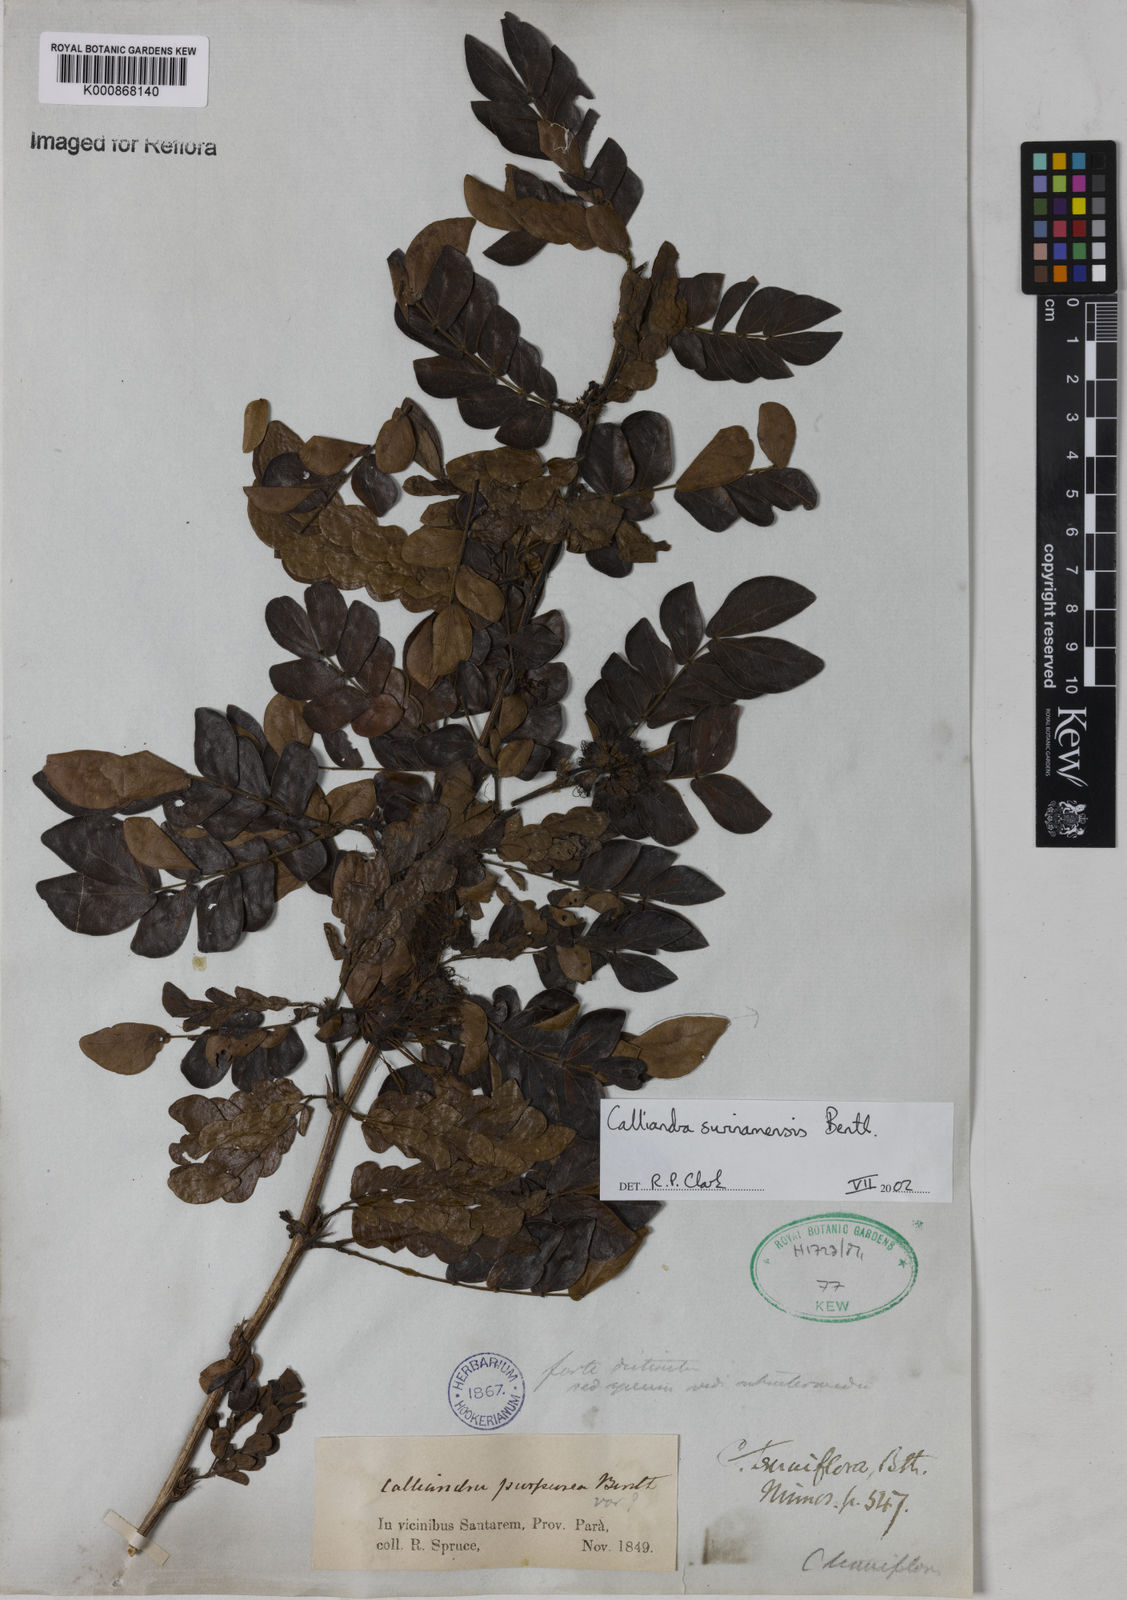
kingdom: Plantae
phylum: Tracheophyta
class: Magnoliopsida
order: Fabales
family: Fabaceae
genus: Calliandra
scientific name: Calliandra surinamensis
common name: Pink powder puff
